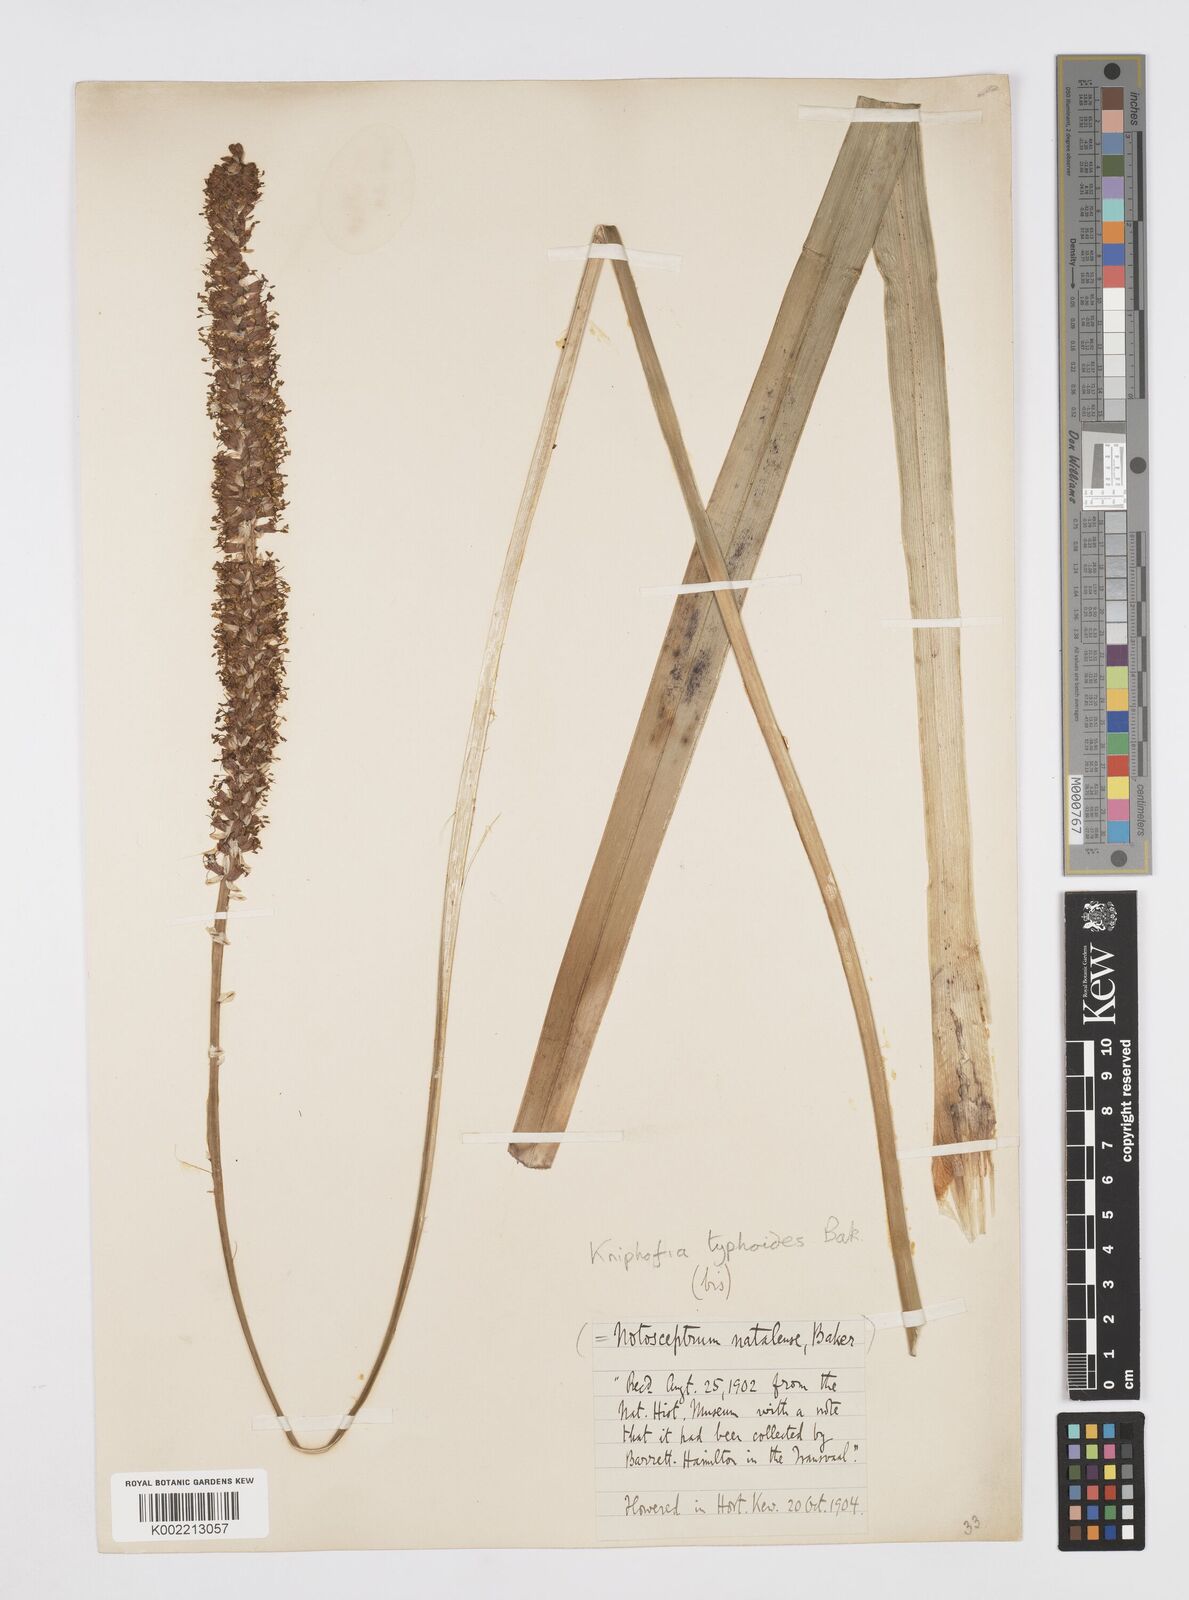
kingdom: Plantae
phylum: Tracheophyta
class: Liliopsida
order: Asparagales
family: Asphodelaceae
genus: Kniphofia
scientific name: Kniphofia typhoides
